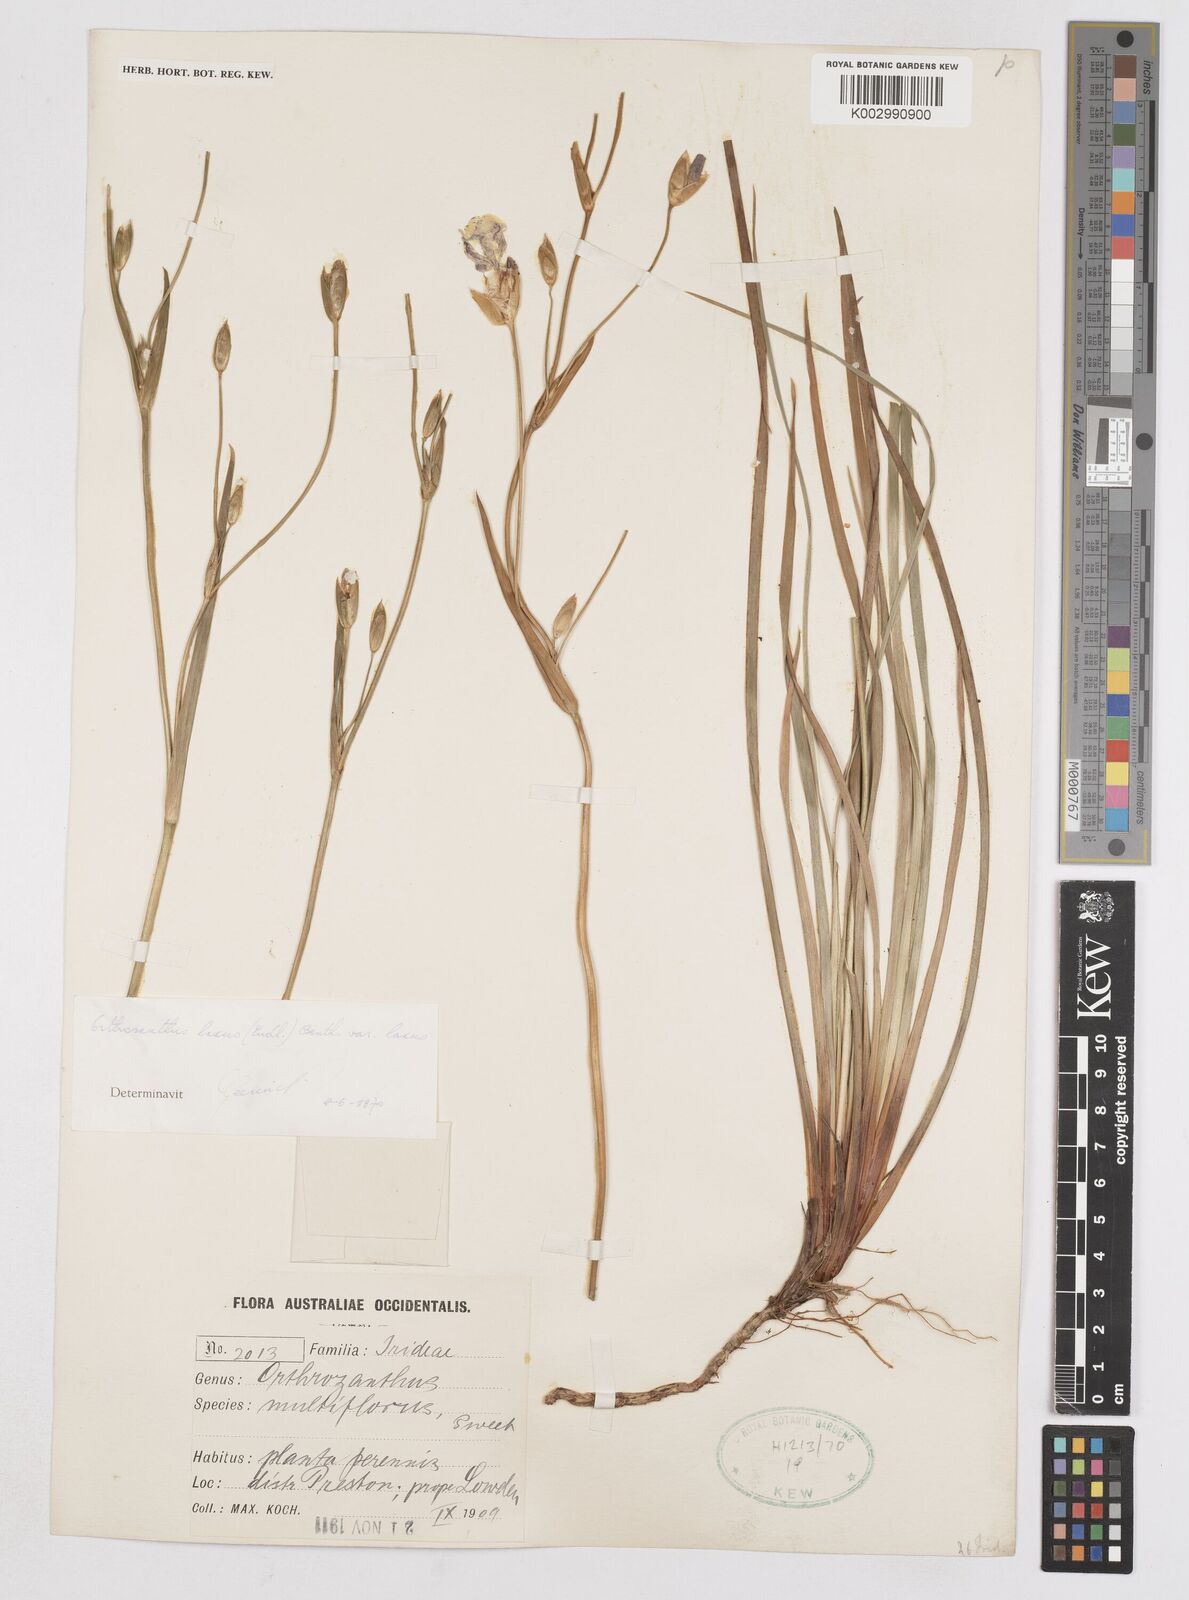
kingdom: Plantae
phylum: Tracheophyta
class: Liliopsida
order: Asparagales
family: Iridaceae
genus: Orthrosanthus
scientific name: Orthrosanthus laxus
